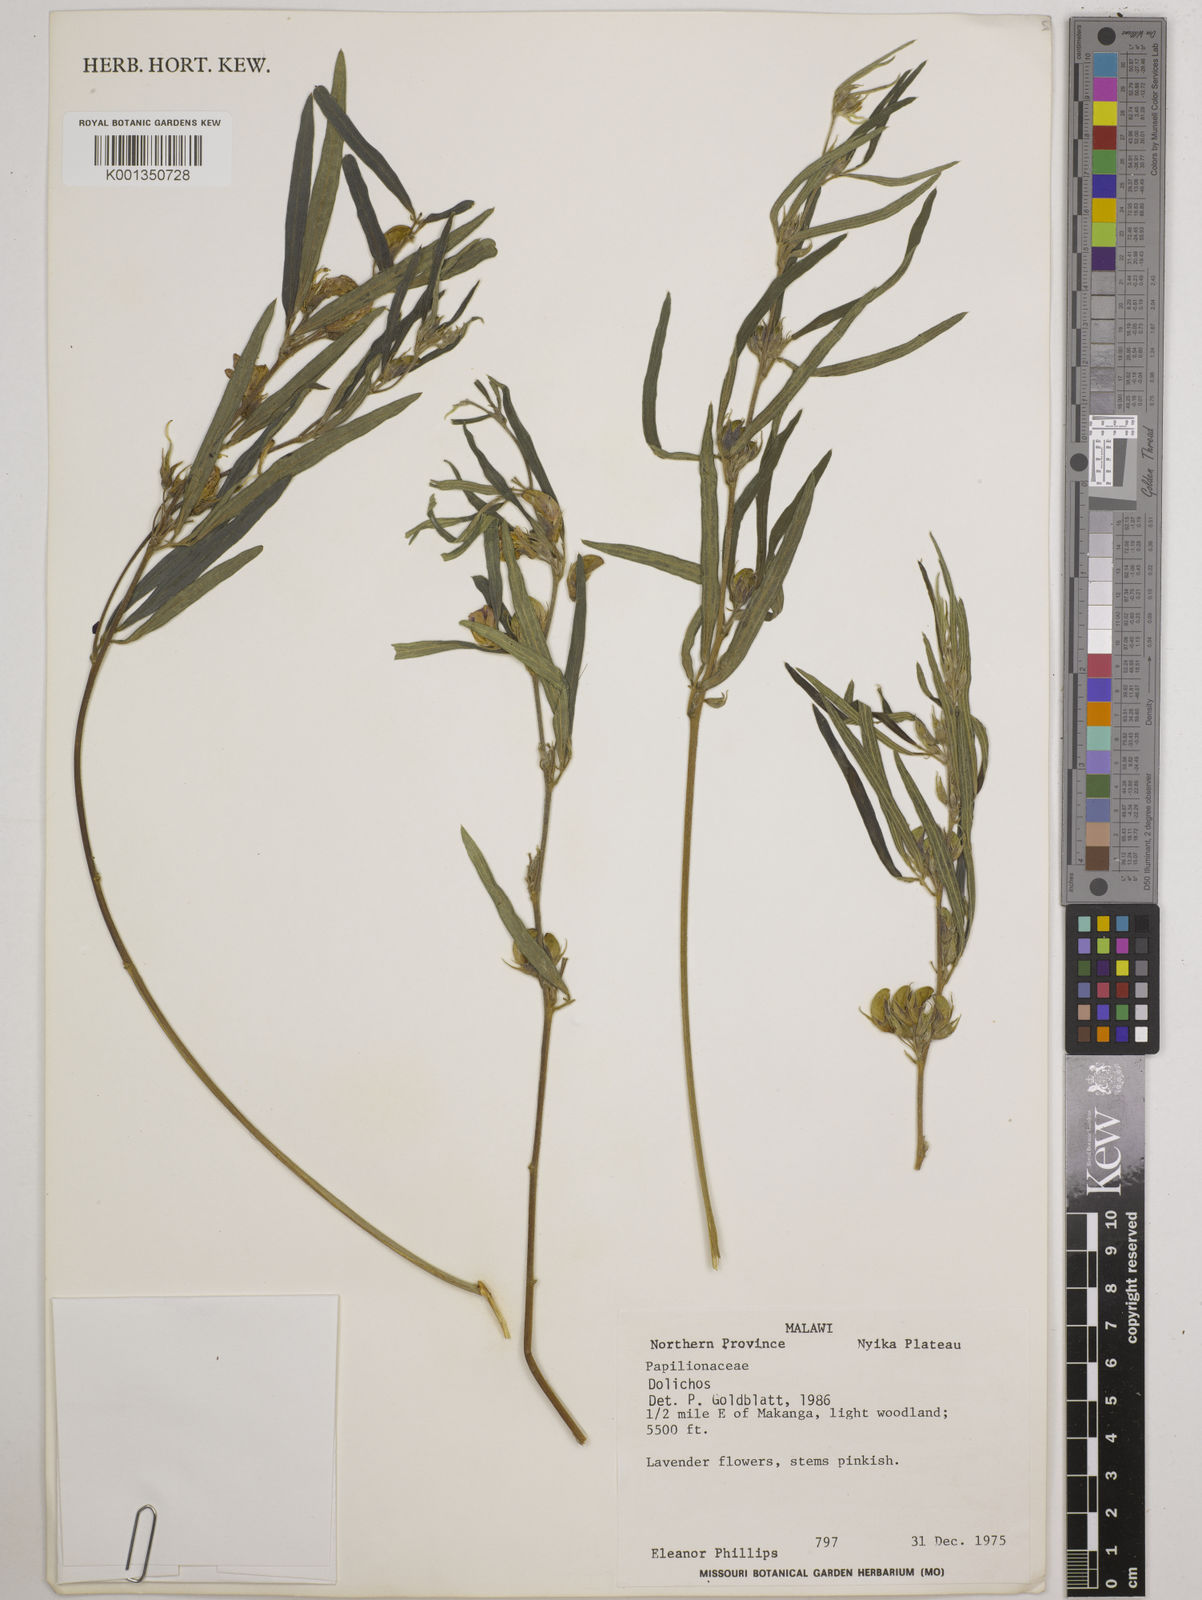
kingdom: Plantae
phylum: Tracheophyta
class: Magnoliopsida
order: Fabales
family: Fabaceae
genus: Dolichos
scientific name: Dolichos
